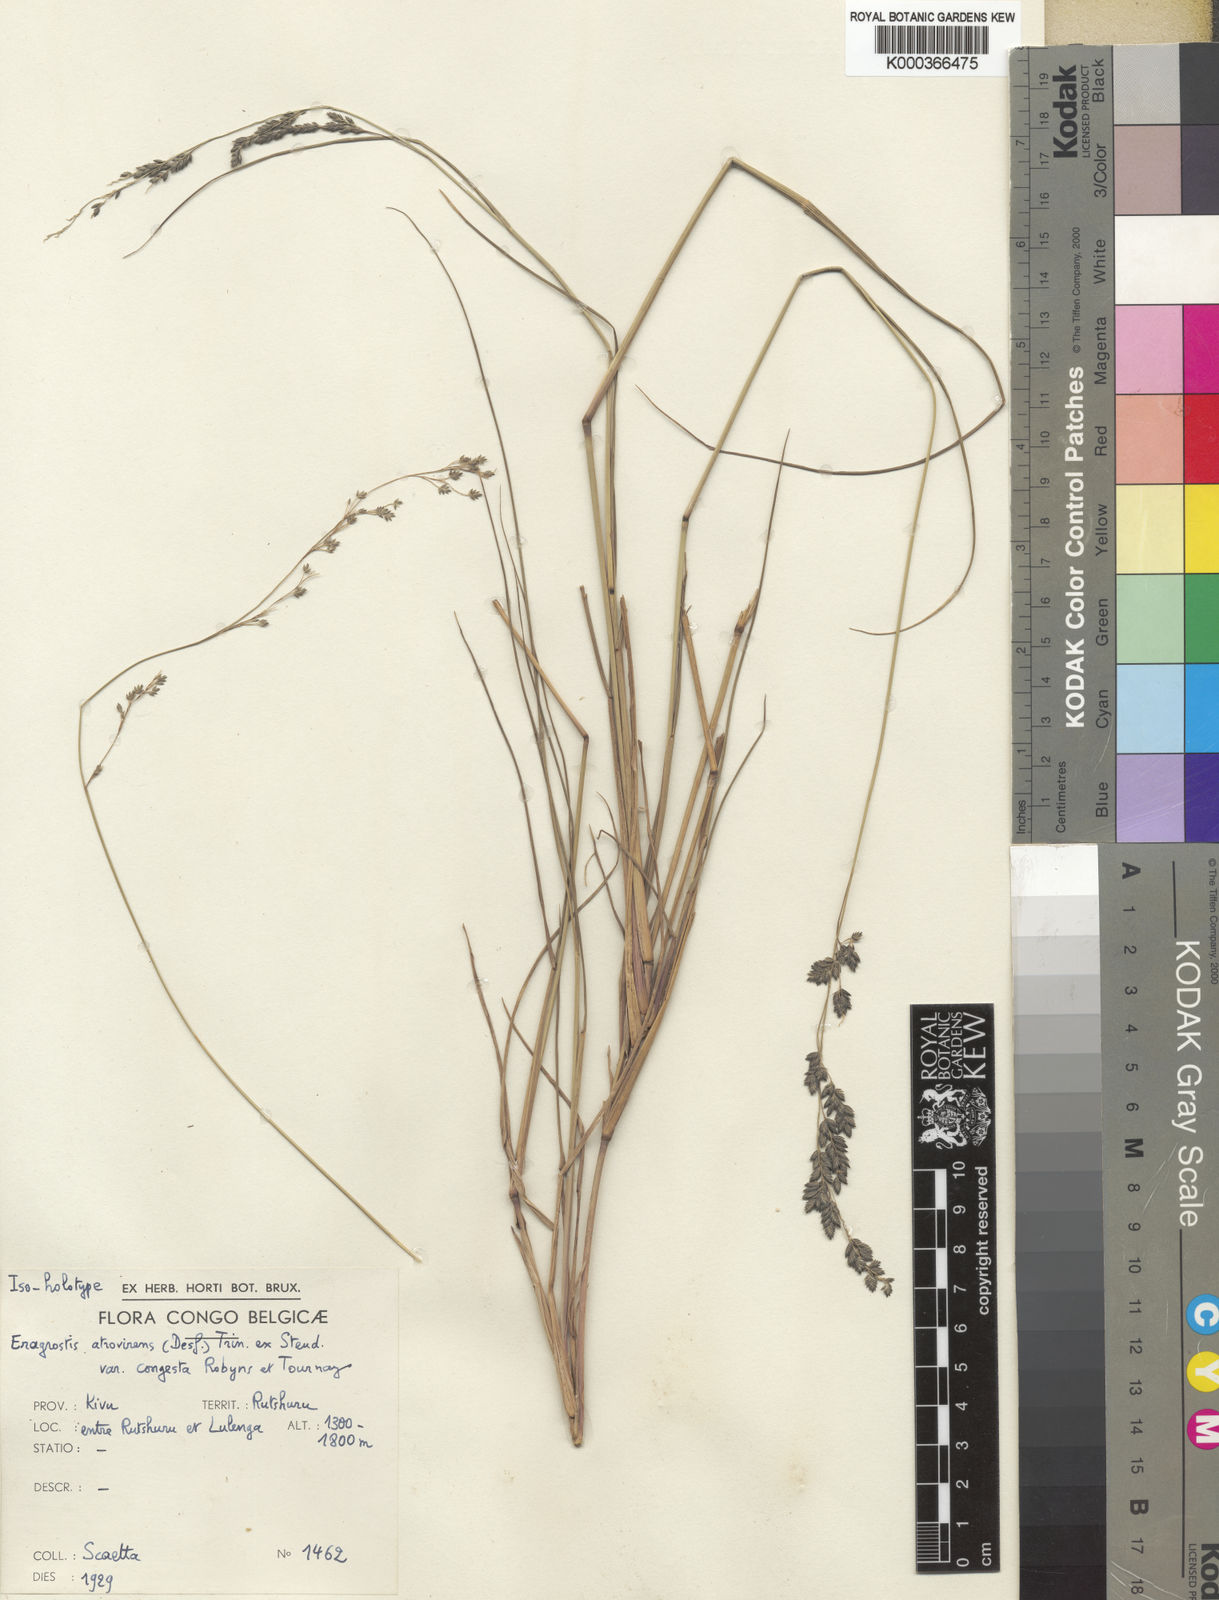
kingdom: Plantae
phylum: Tracheophyta
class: Liliopsida
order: Poales
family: Poaceae
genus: Eragrostis
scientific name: Eragrostis botryodes
